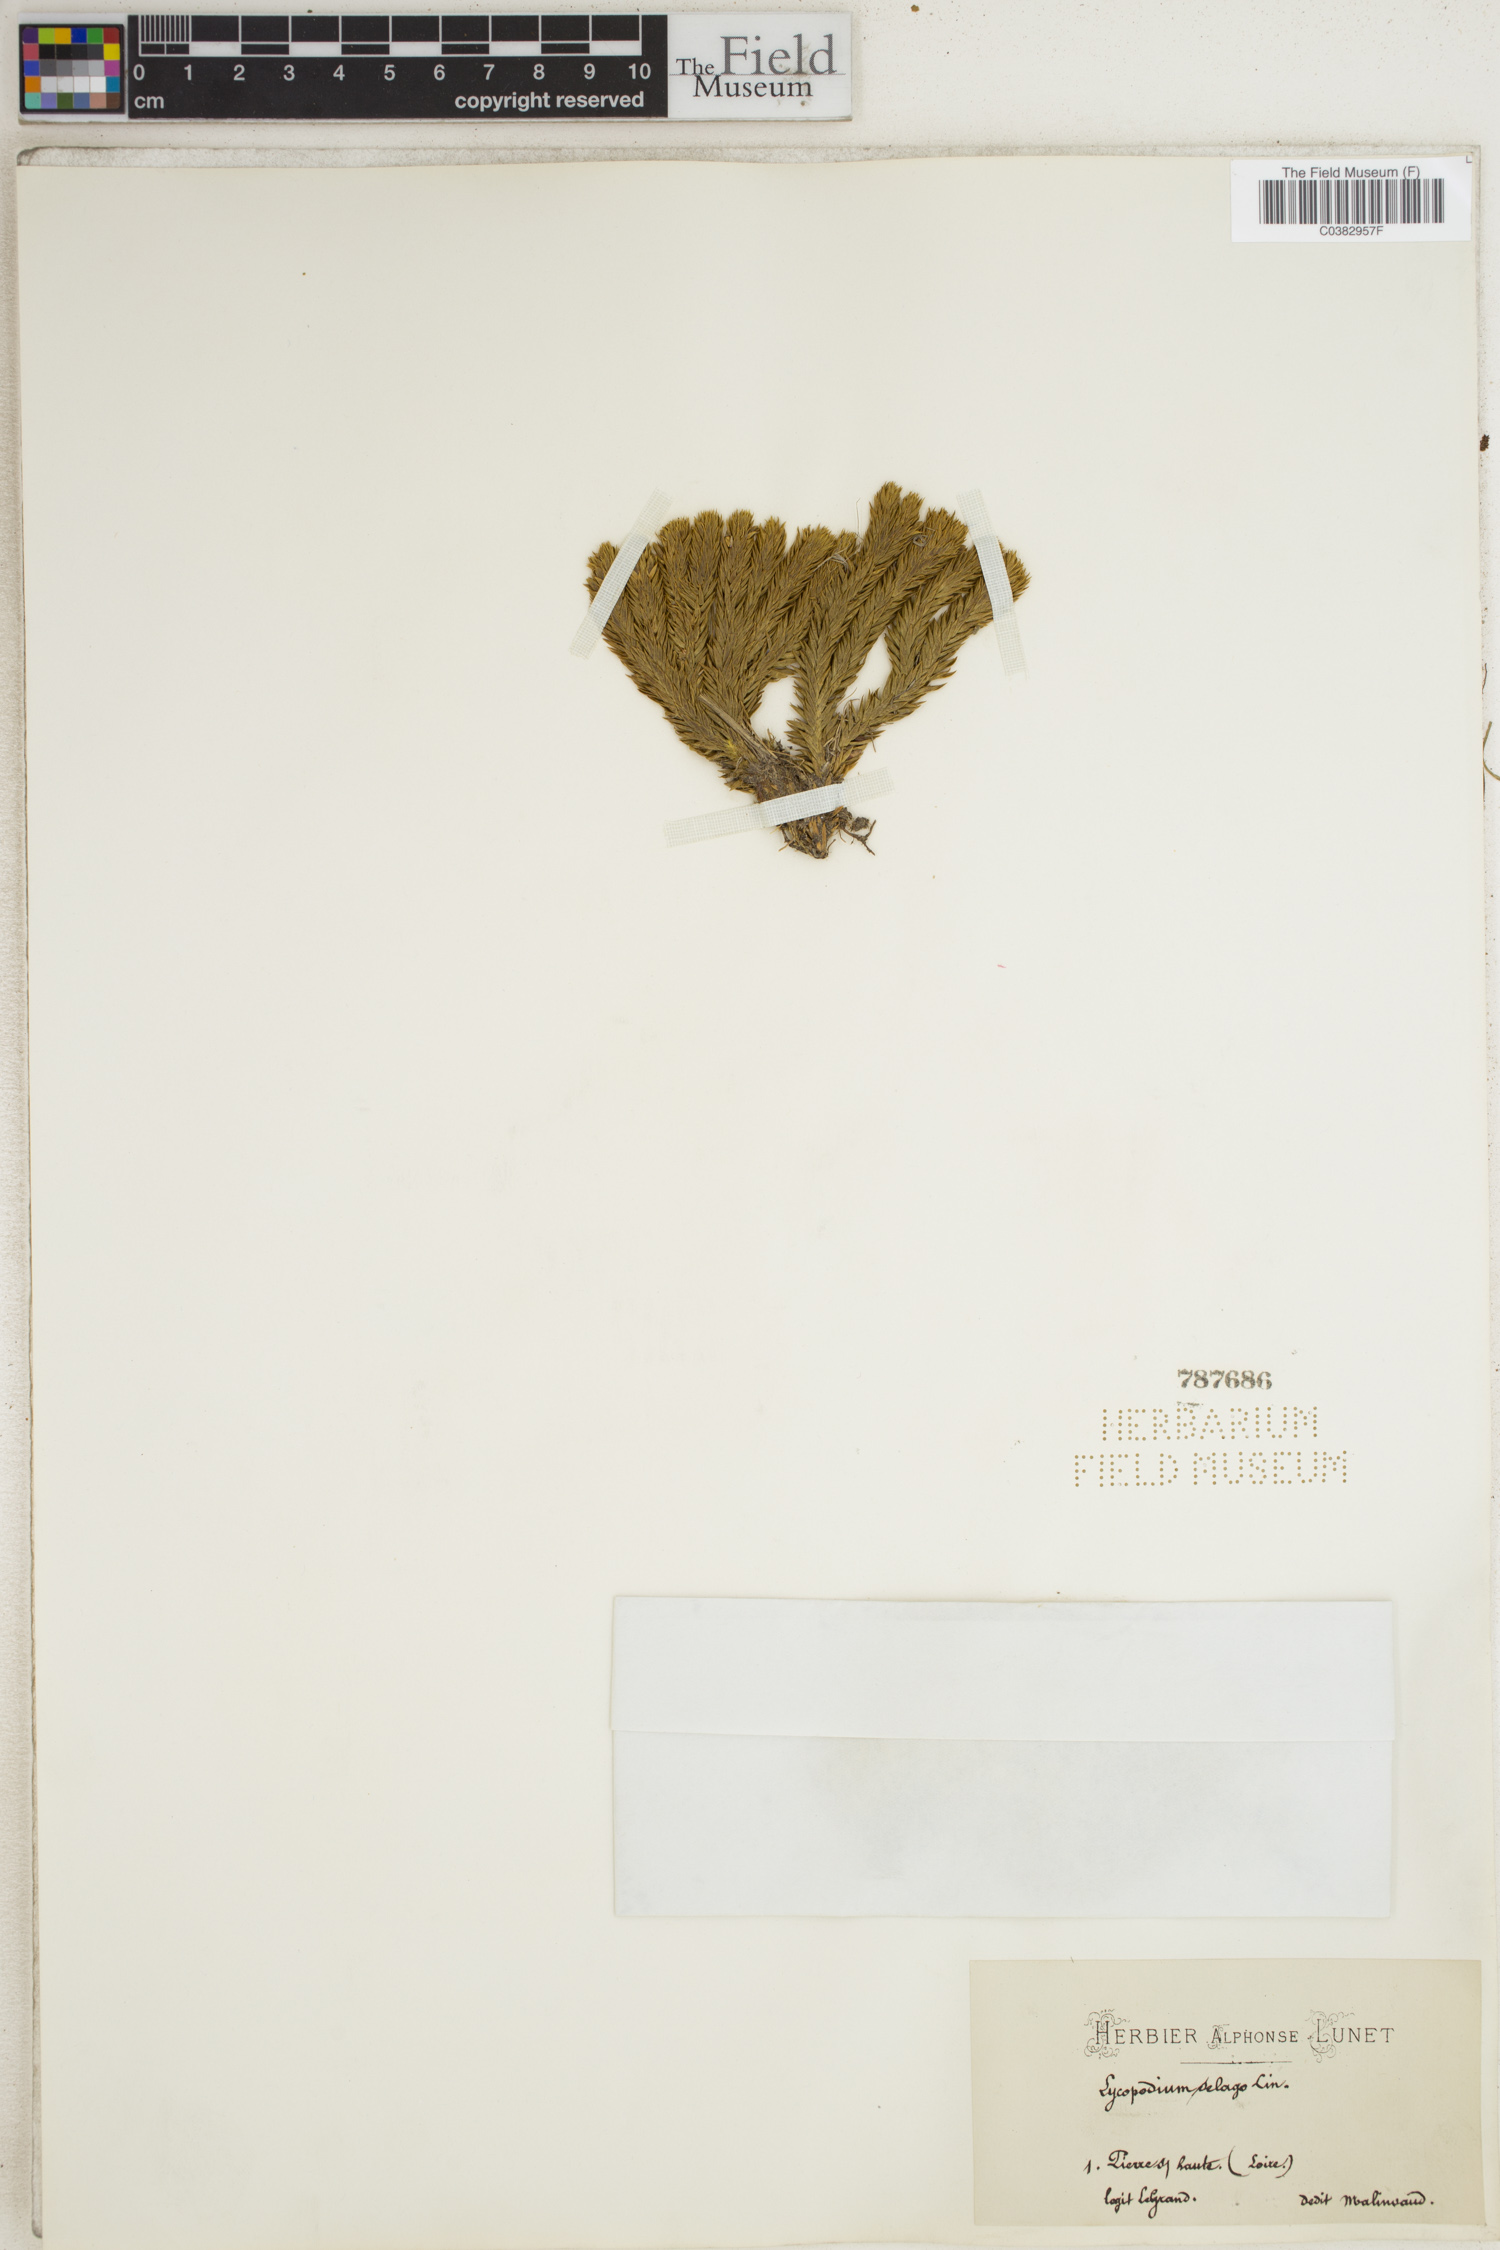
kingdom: Plantae
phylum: Tracheophyta
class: Lycopodiopsida
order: Lycopodiales
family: Lycopodiaceae
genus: Huperzia
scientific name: Huperzia selago
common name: Northern firmoss
